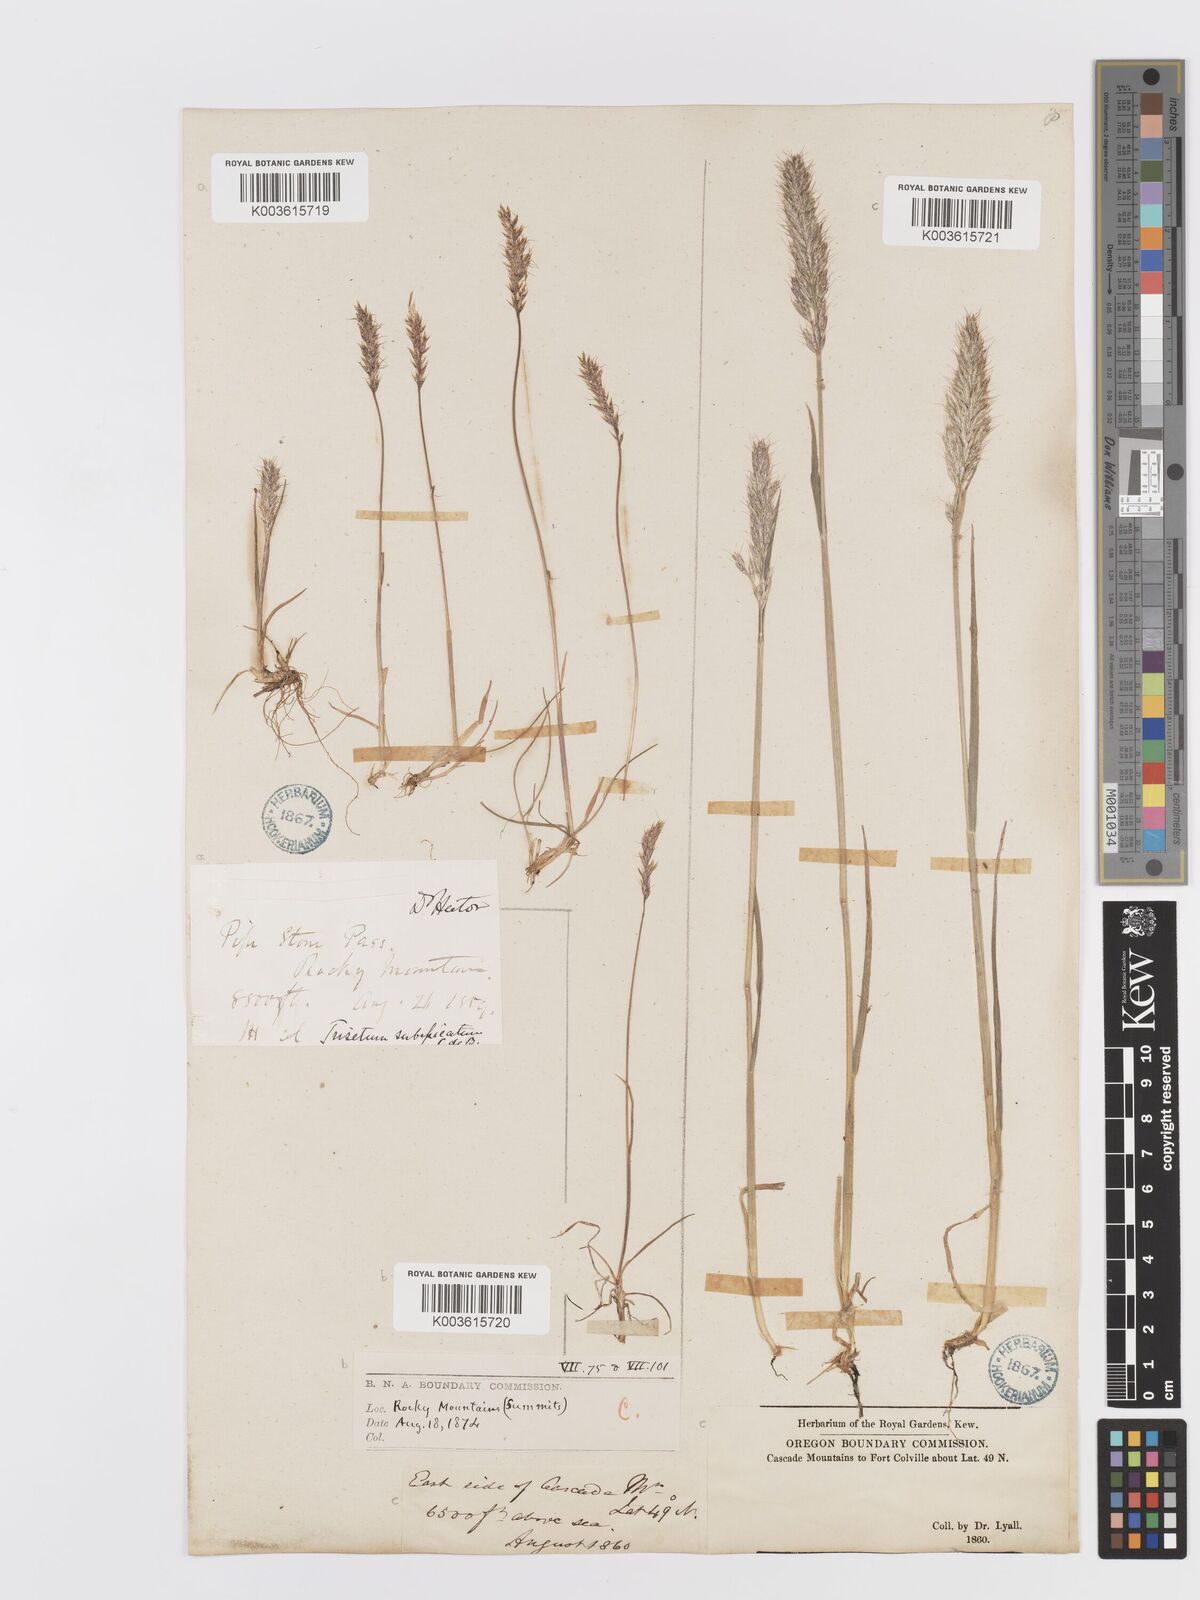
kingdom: Plantae
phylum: Tracheophyta
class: Liliopsida
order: Poales
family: Poaceae
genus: Koeleria
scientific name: Koeleria spicata
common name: Mountain trisetum
